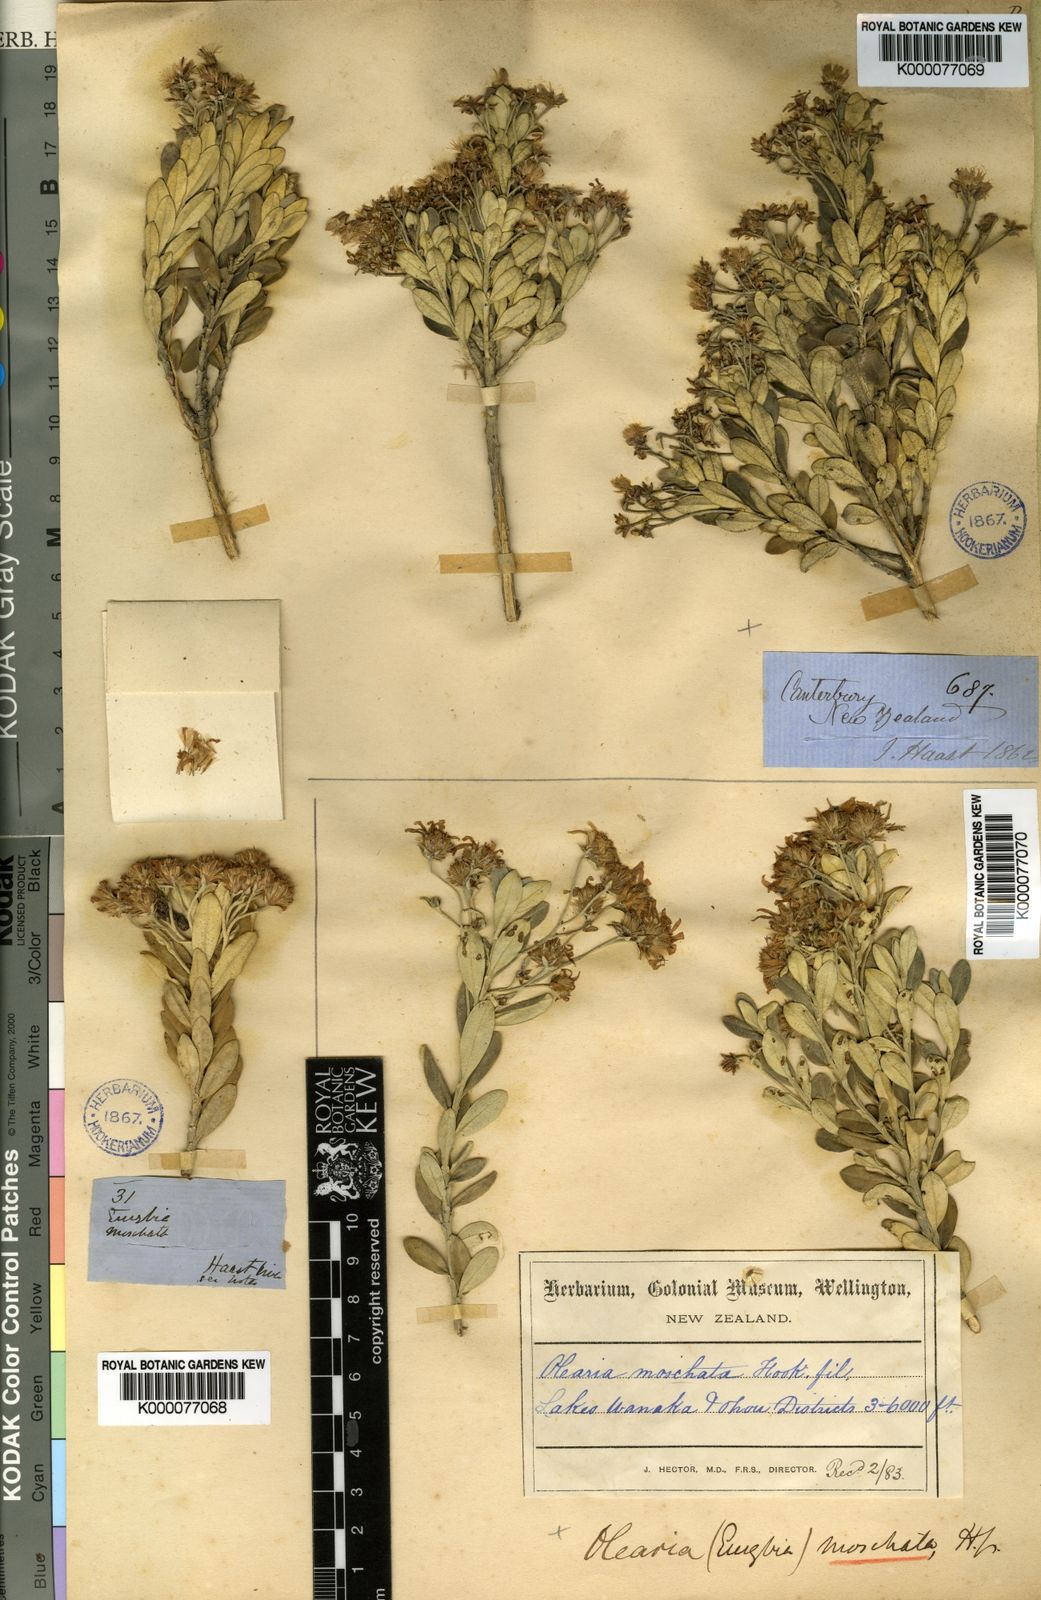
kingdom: Plantae
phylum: Tracheophyta
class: Magnoliopsida
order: Asterales
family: Asteraceae
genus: Olearia
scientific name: Olearia moschata
